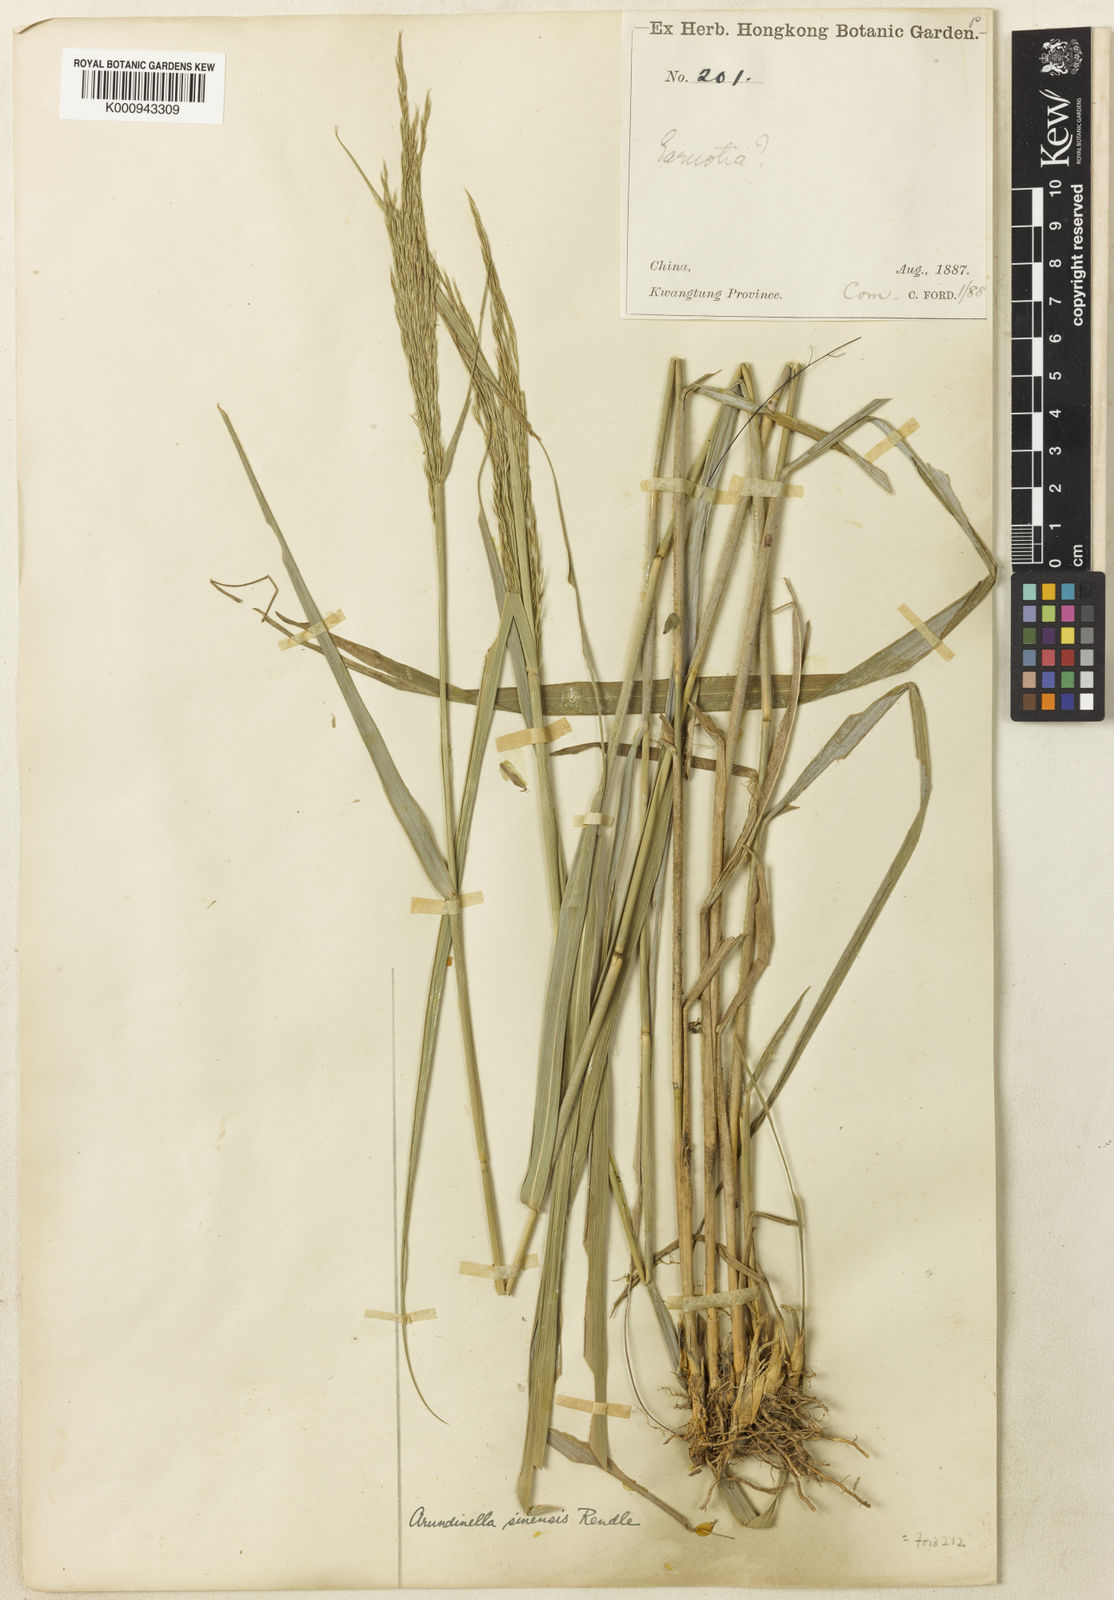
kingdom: Plantae
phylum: Tracheophyta
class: Liliopsida
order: Poales
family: Poaceae
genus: Arundinella
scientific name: Arundinella setosa
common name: Reed grass
